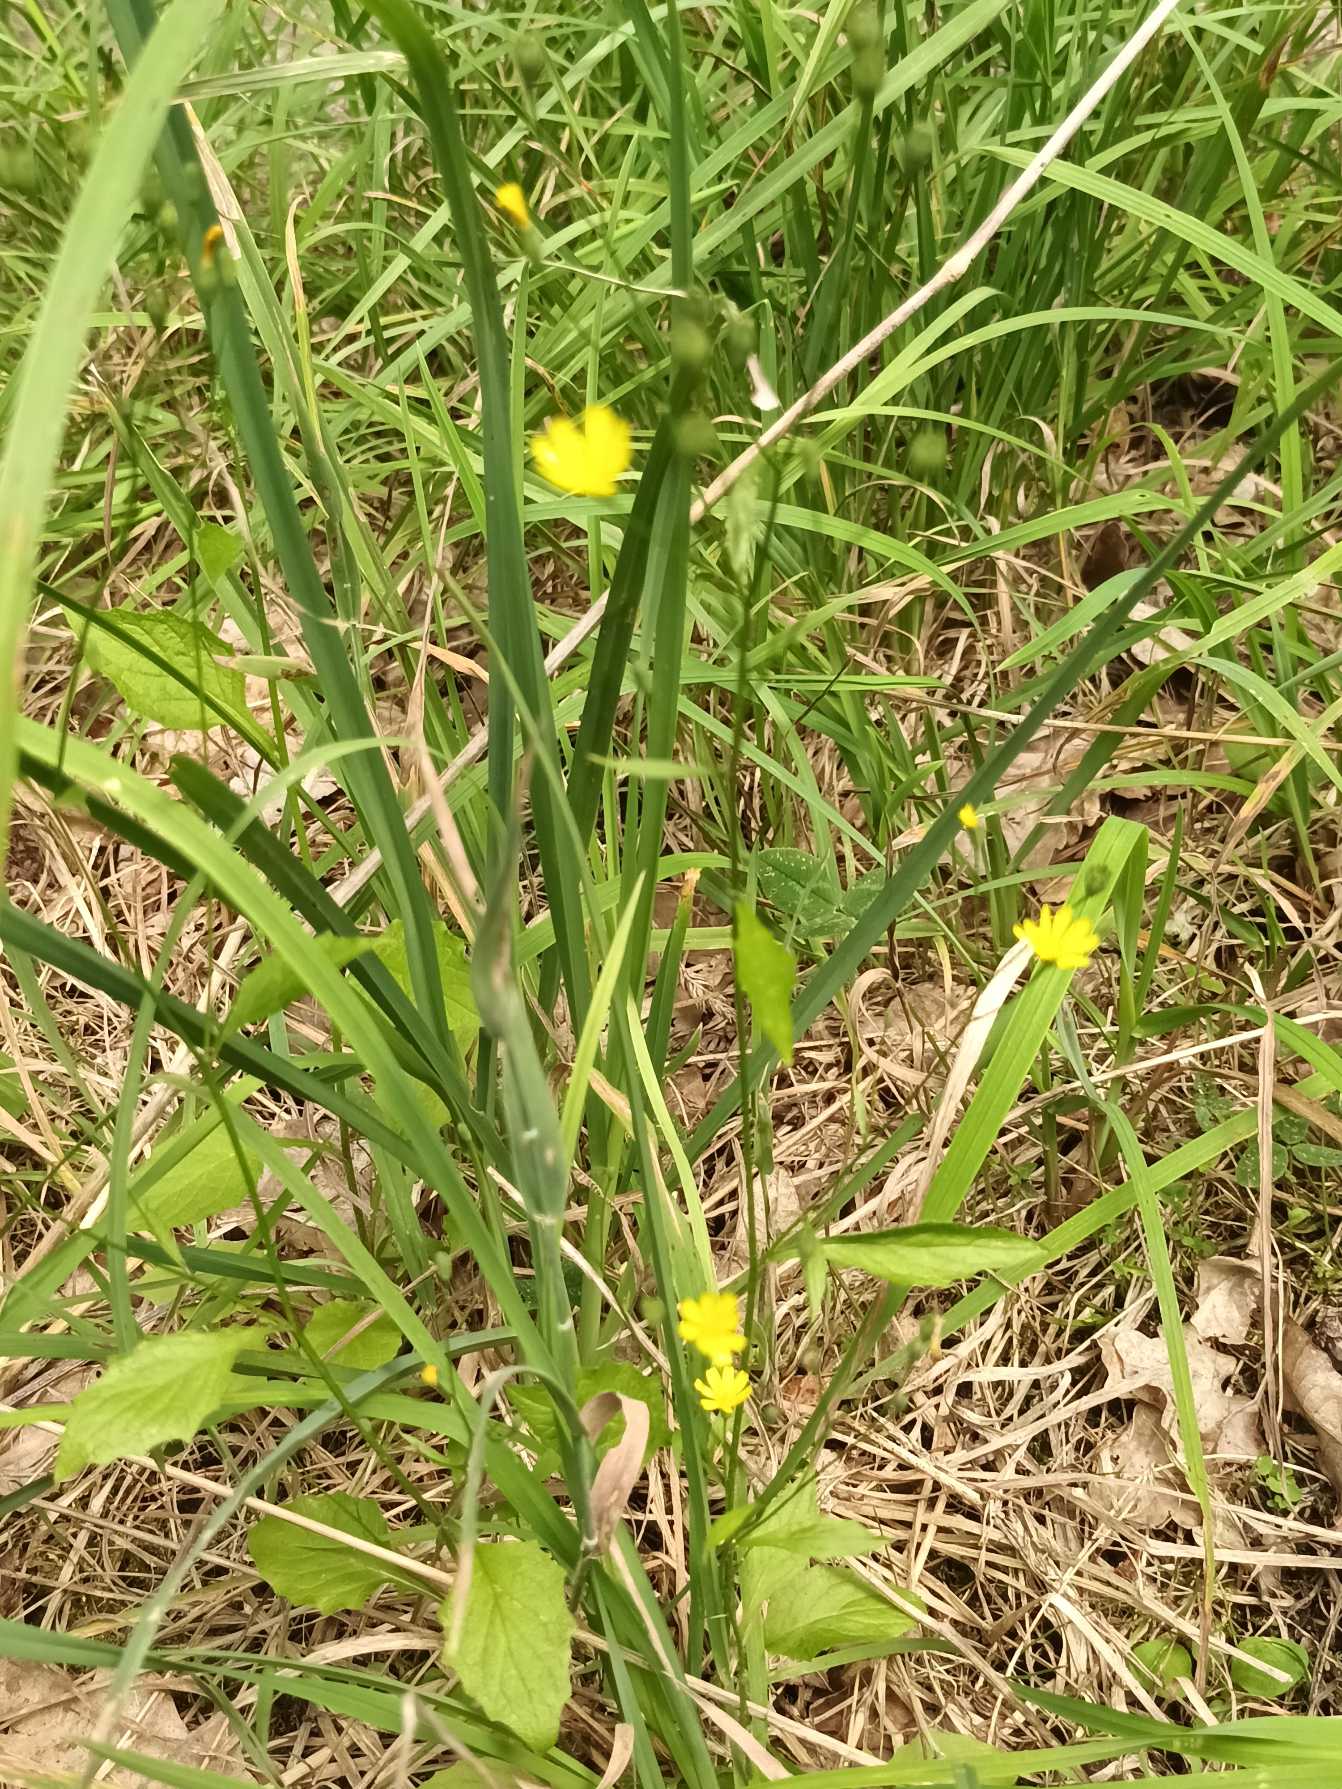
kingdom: Plantae
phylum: Tracheophyta
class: Magnoliopsida
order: Asterales
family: Asteraceae
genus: Lapsana
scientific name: Lapsana communis
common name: Haremad
